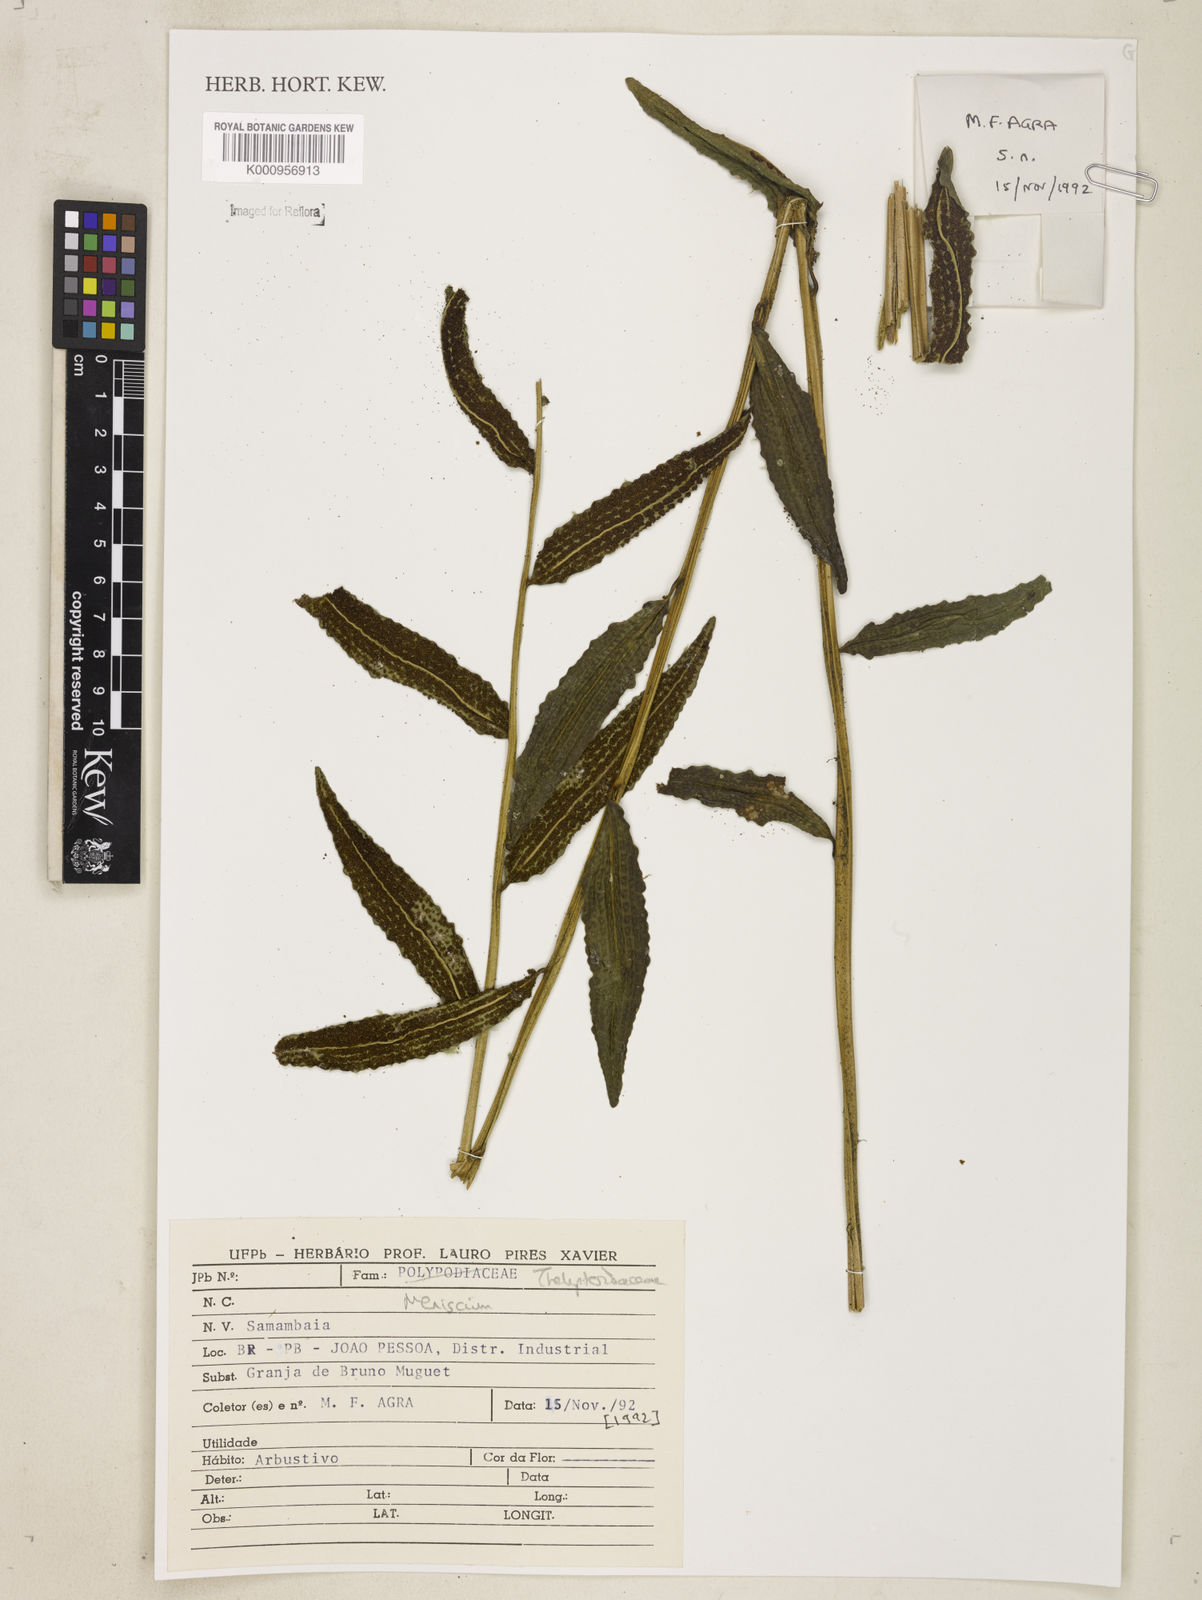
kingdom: Plantae
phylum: Tracheophyta
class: Polypodiopsida
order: Polypodiales
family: Thelypteridaceae
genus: Meniscium
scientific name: Meniscium
